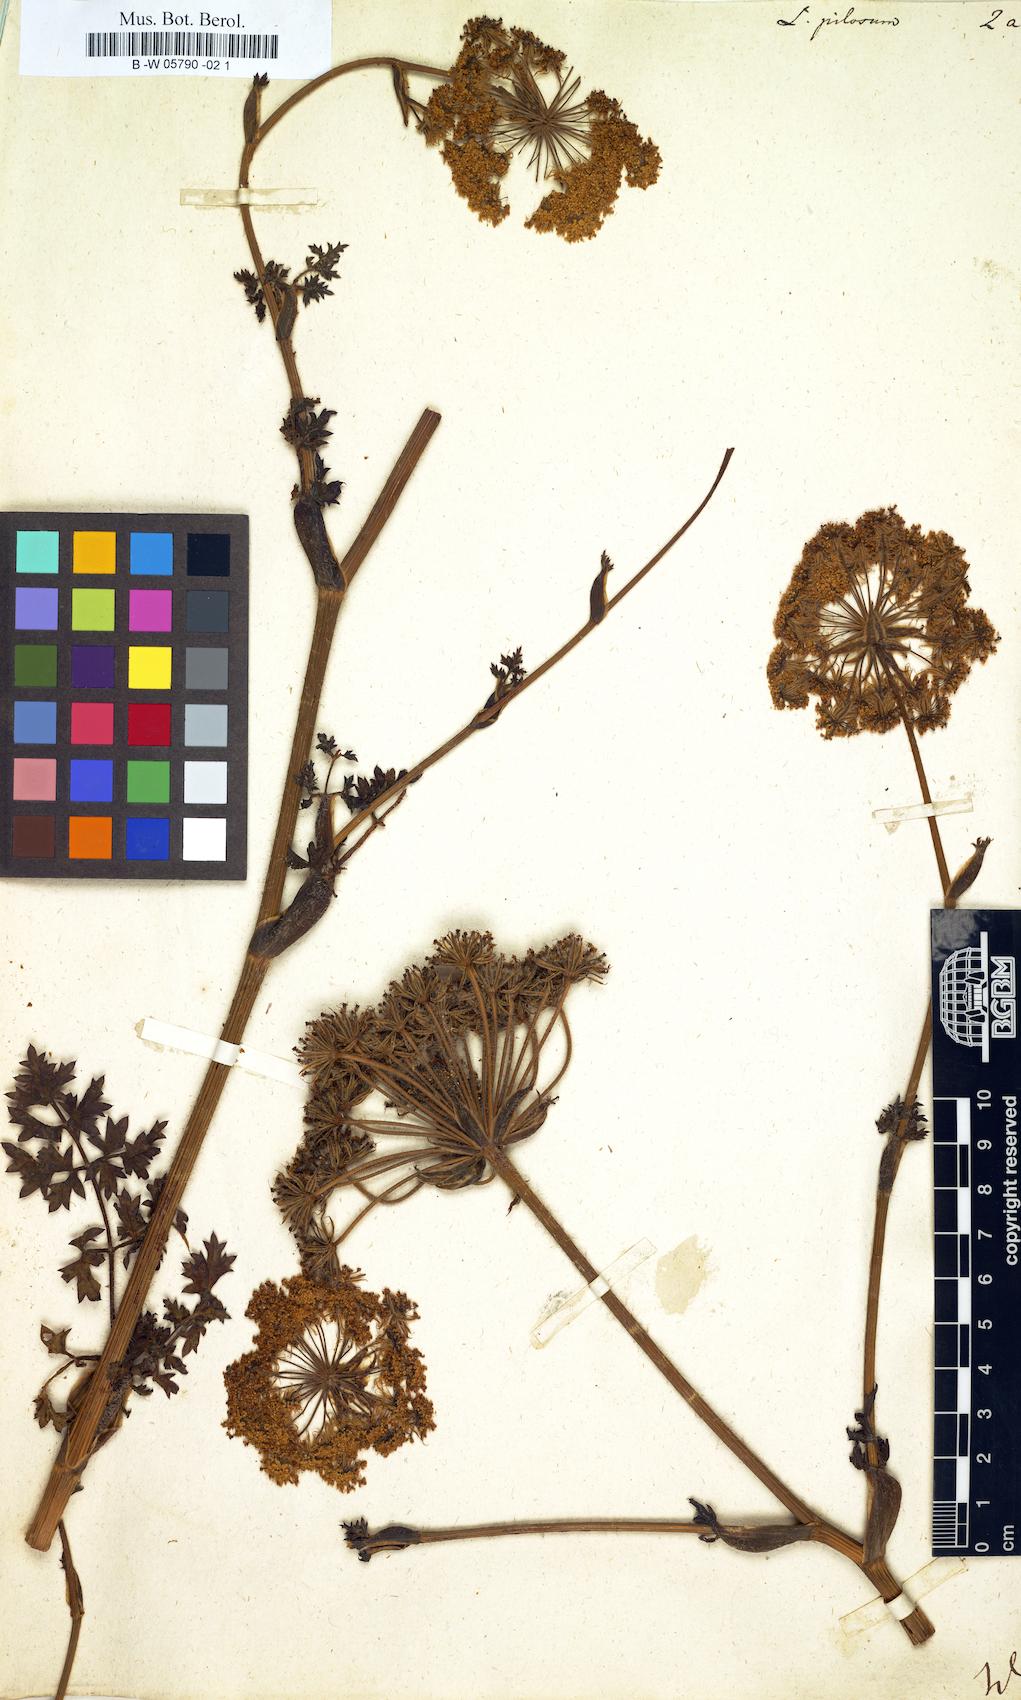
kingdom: Plantae
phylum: Tracheophyta
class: Magnoliopsida
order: Apiales
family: Apiaceae
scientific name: Apiaceae
